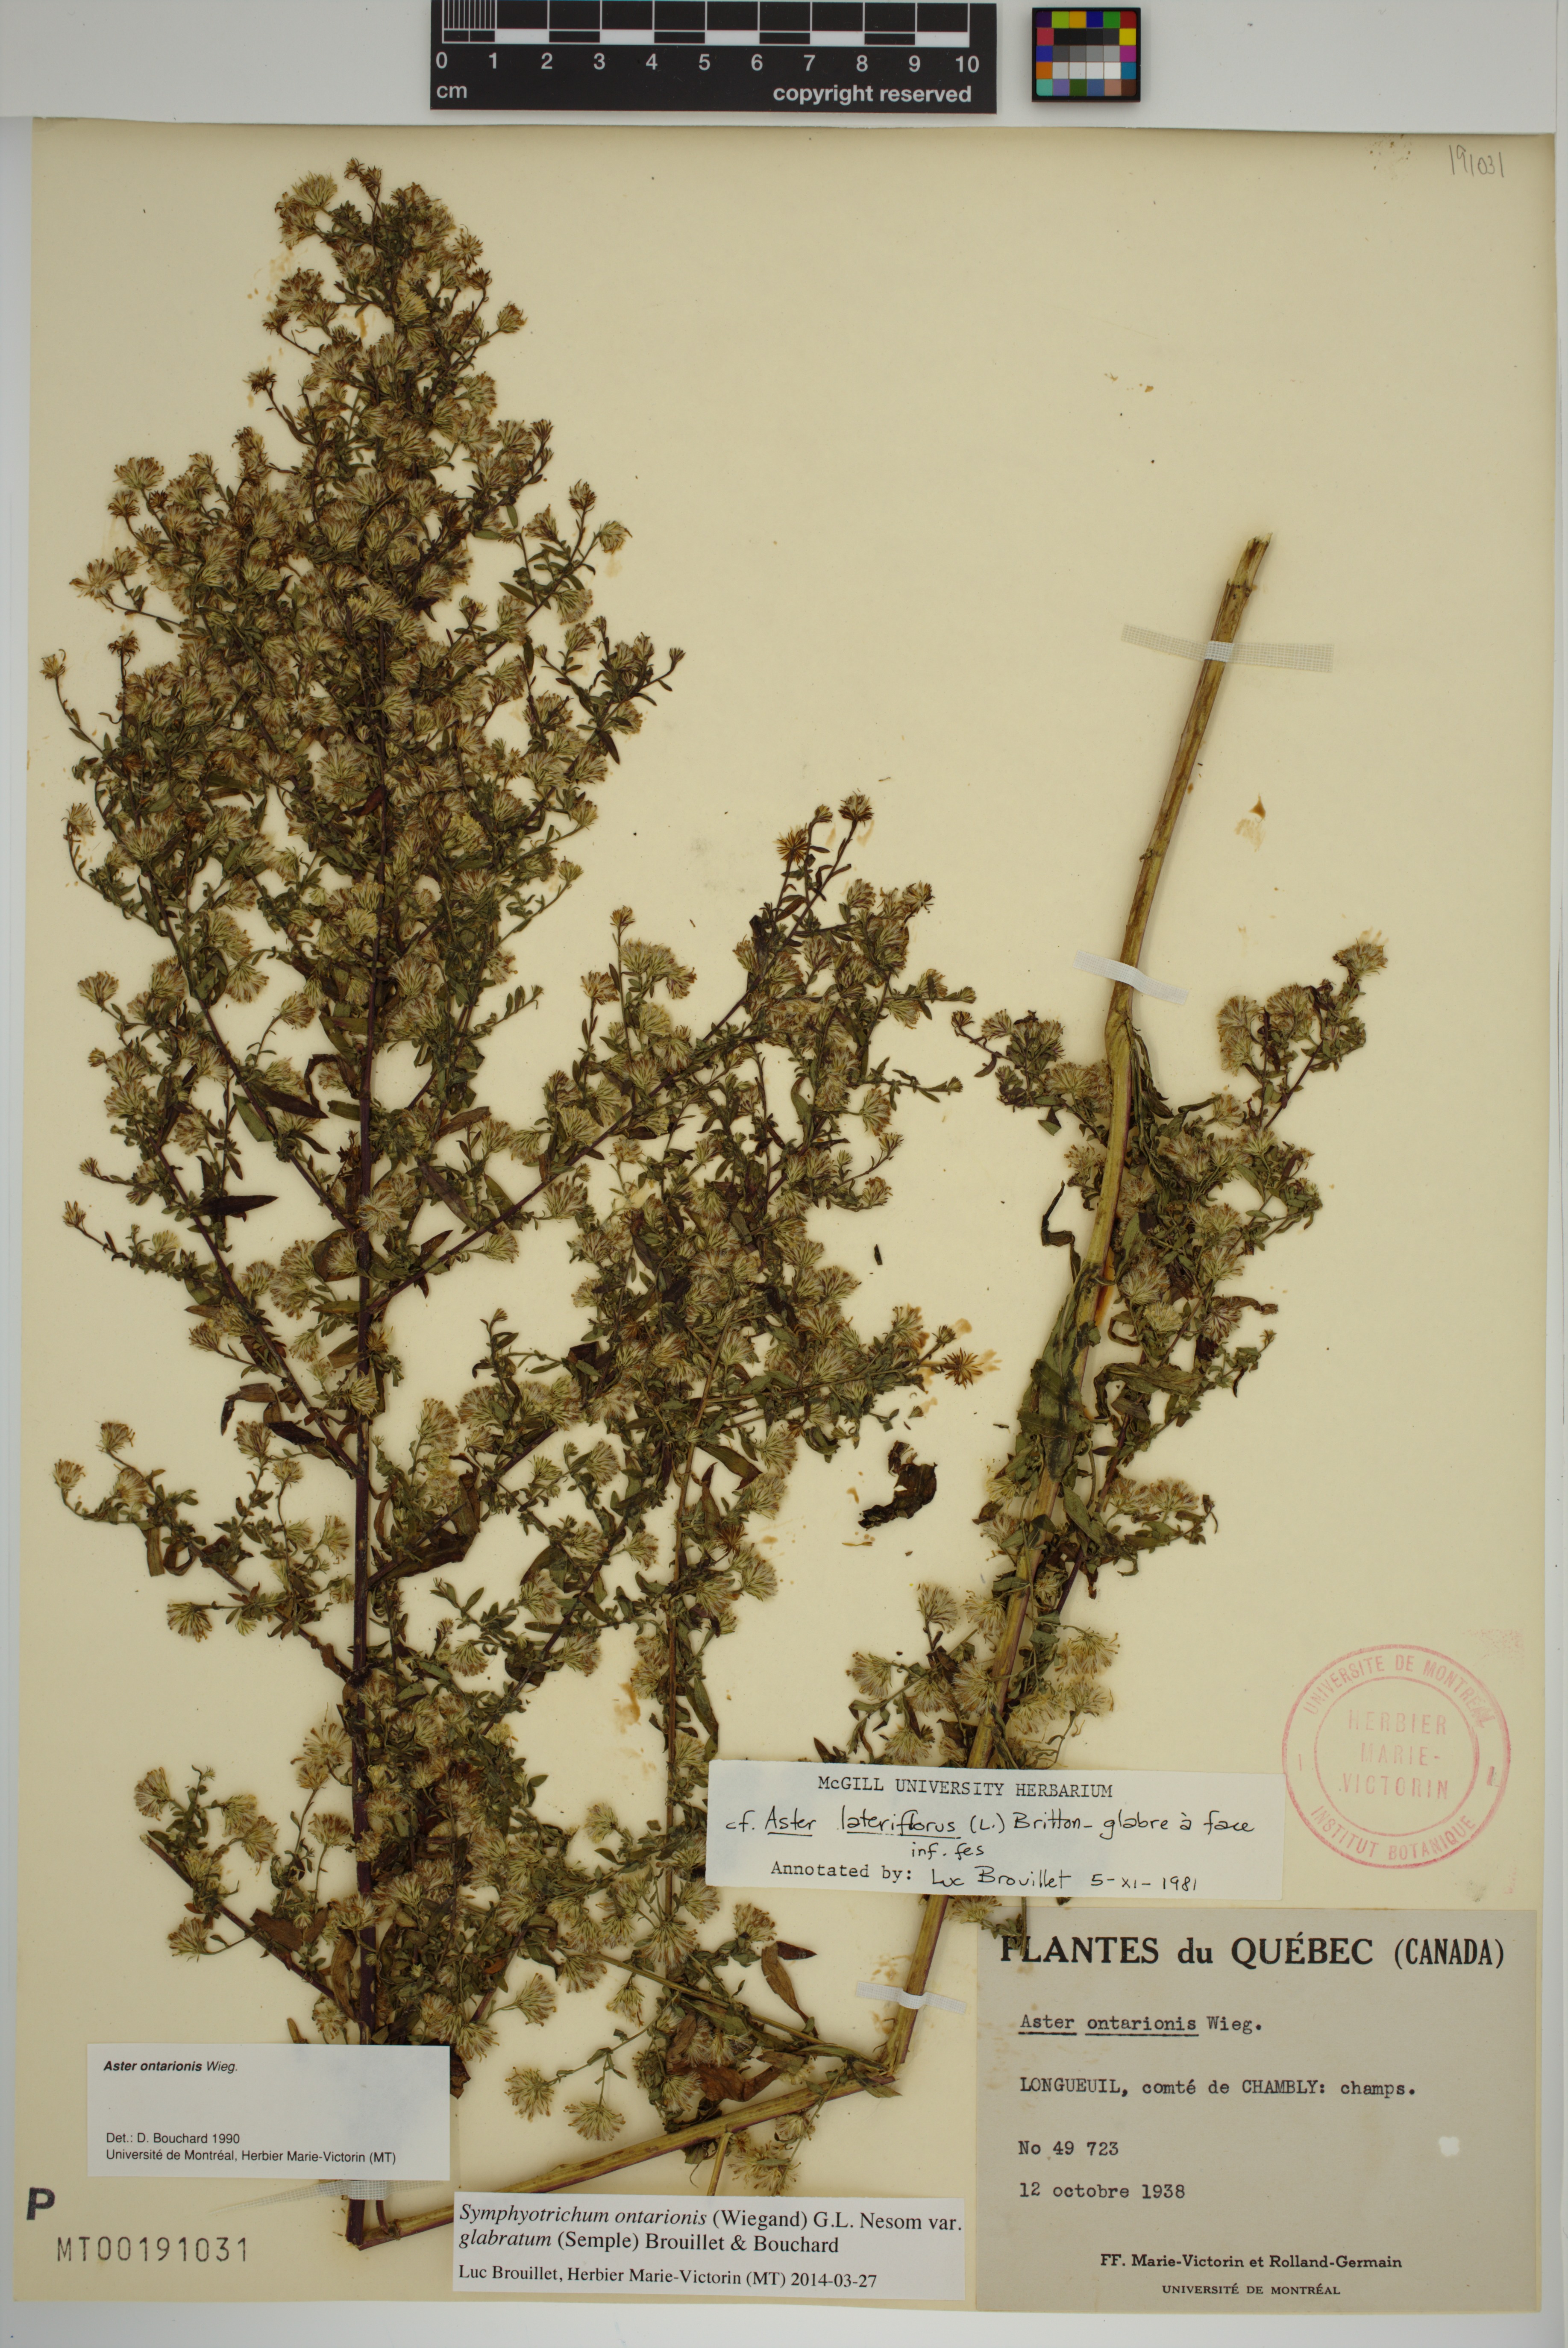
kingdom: Plantae
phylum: Tracheophyta
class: Magnoliopsida
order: Asterales
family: Asteraceae
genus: Symphyotrichum
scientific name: Symphyotrichum ontarionis
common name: Bottomland aster
